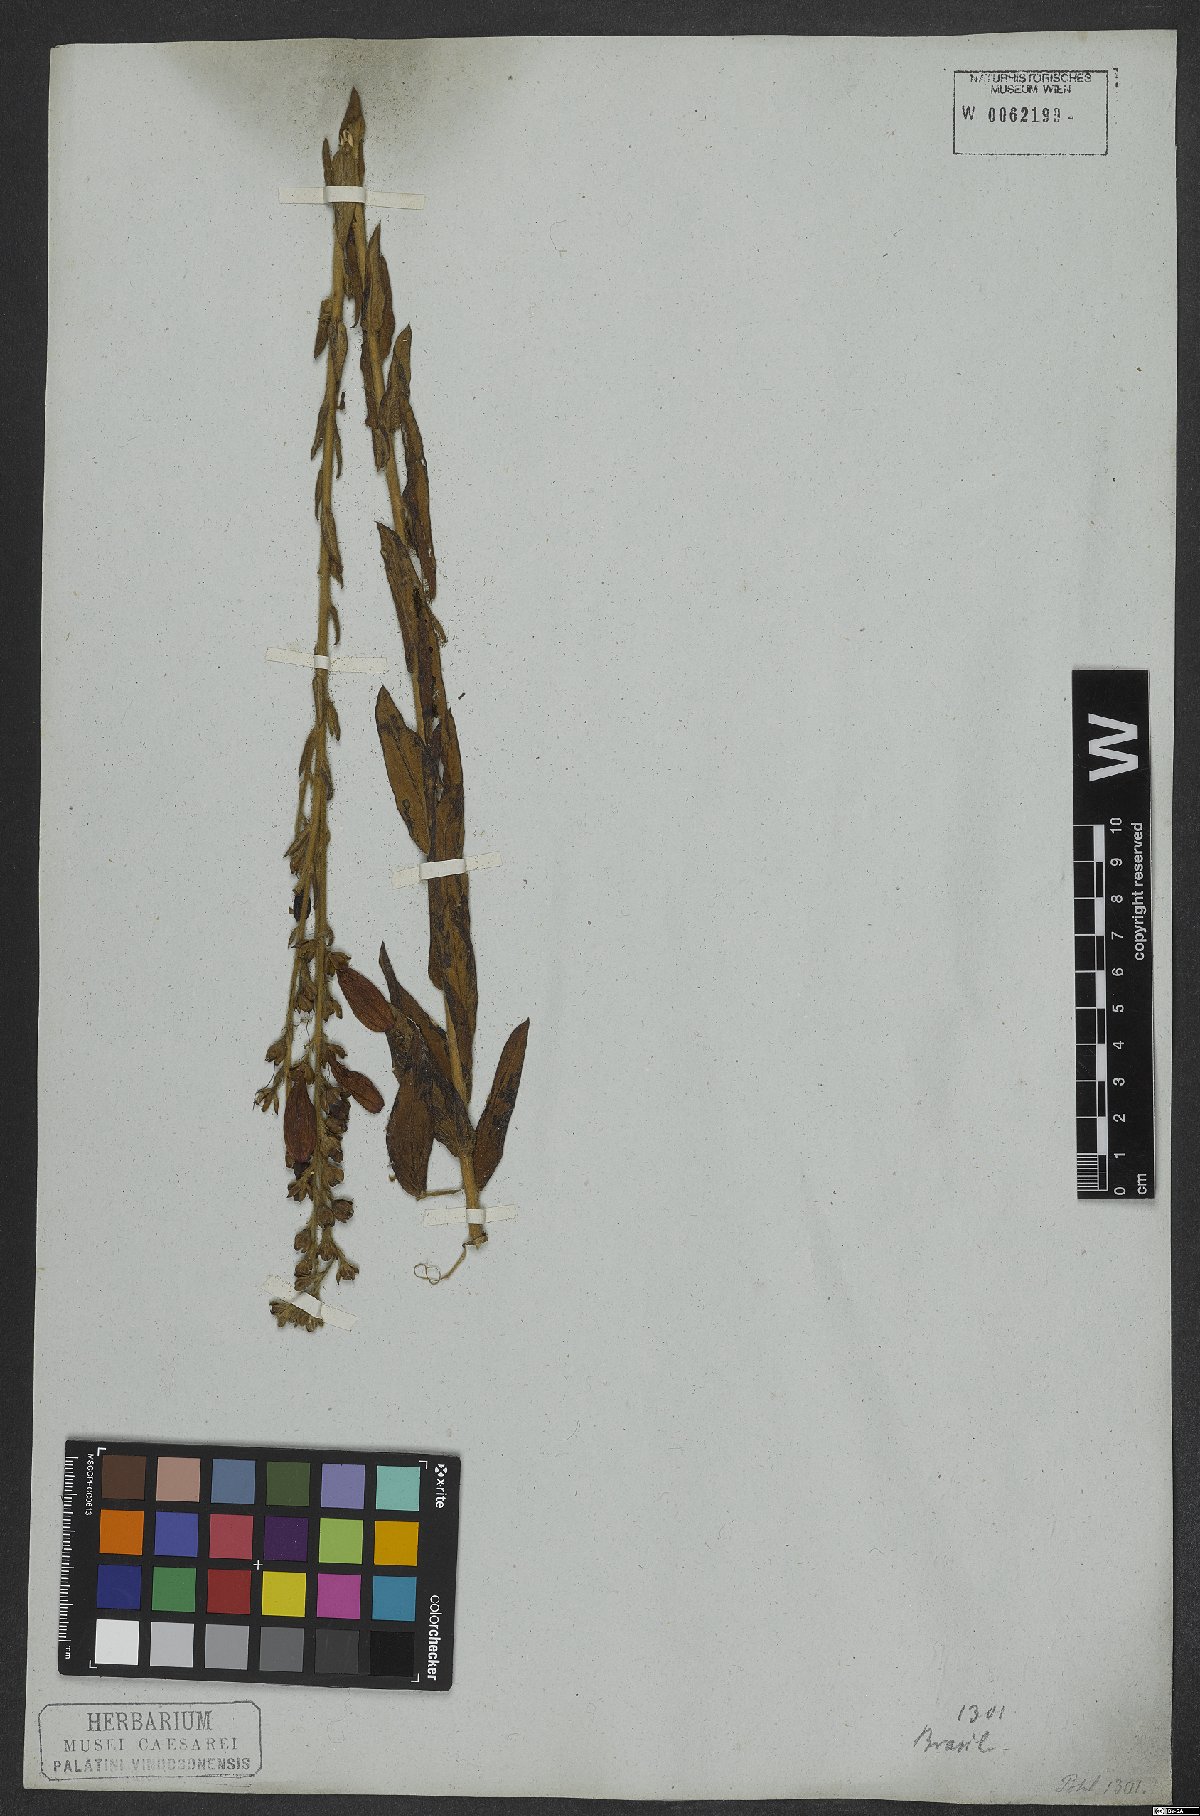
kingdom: Plantae
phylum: Tracheophyta
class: Magnoliopsida
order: Solanales
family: Convolvulaceae
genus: Ipomoea
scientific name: Ipomoea paulistana
